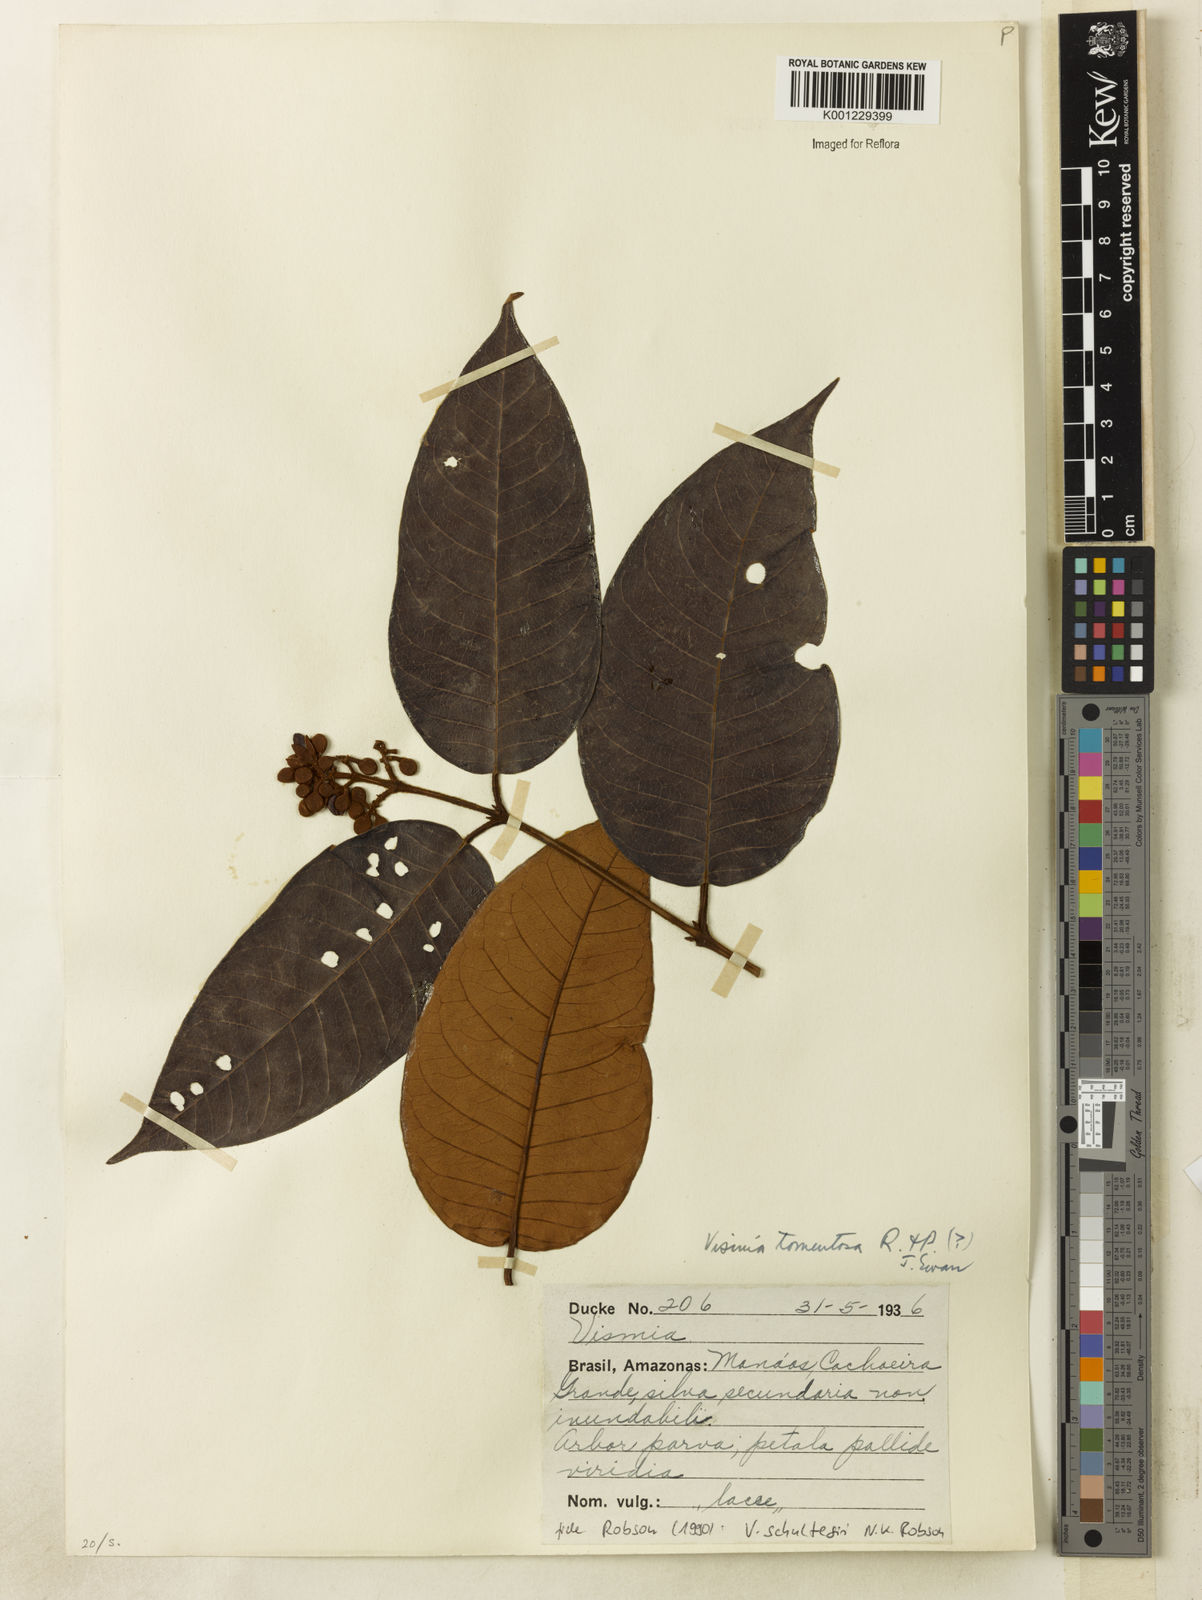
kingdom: Plantae
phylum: Tracheophyta
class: Magnoliopsida
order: Malpighiales
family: Hypericaceae
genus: Vismia
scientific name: Vismia ferruginea
